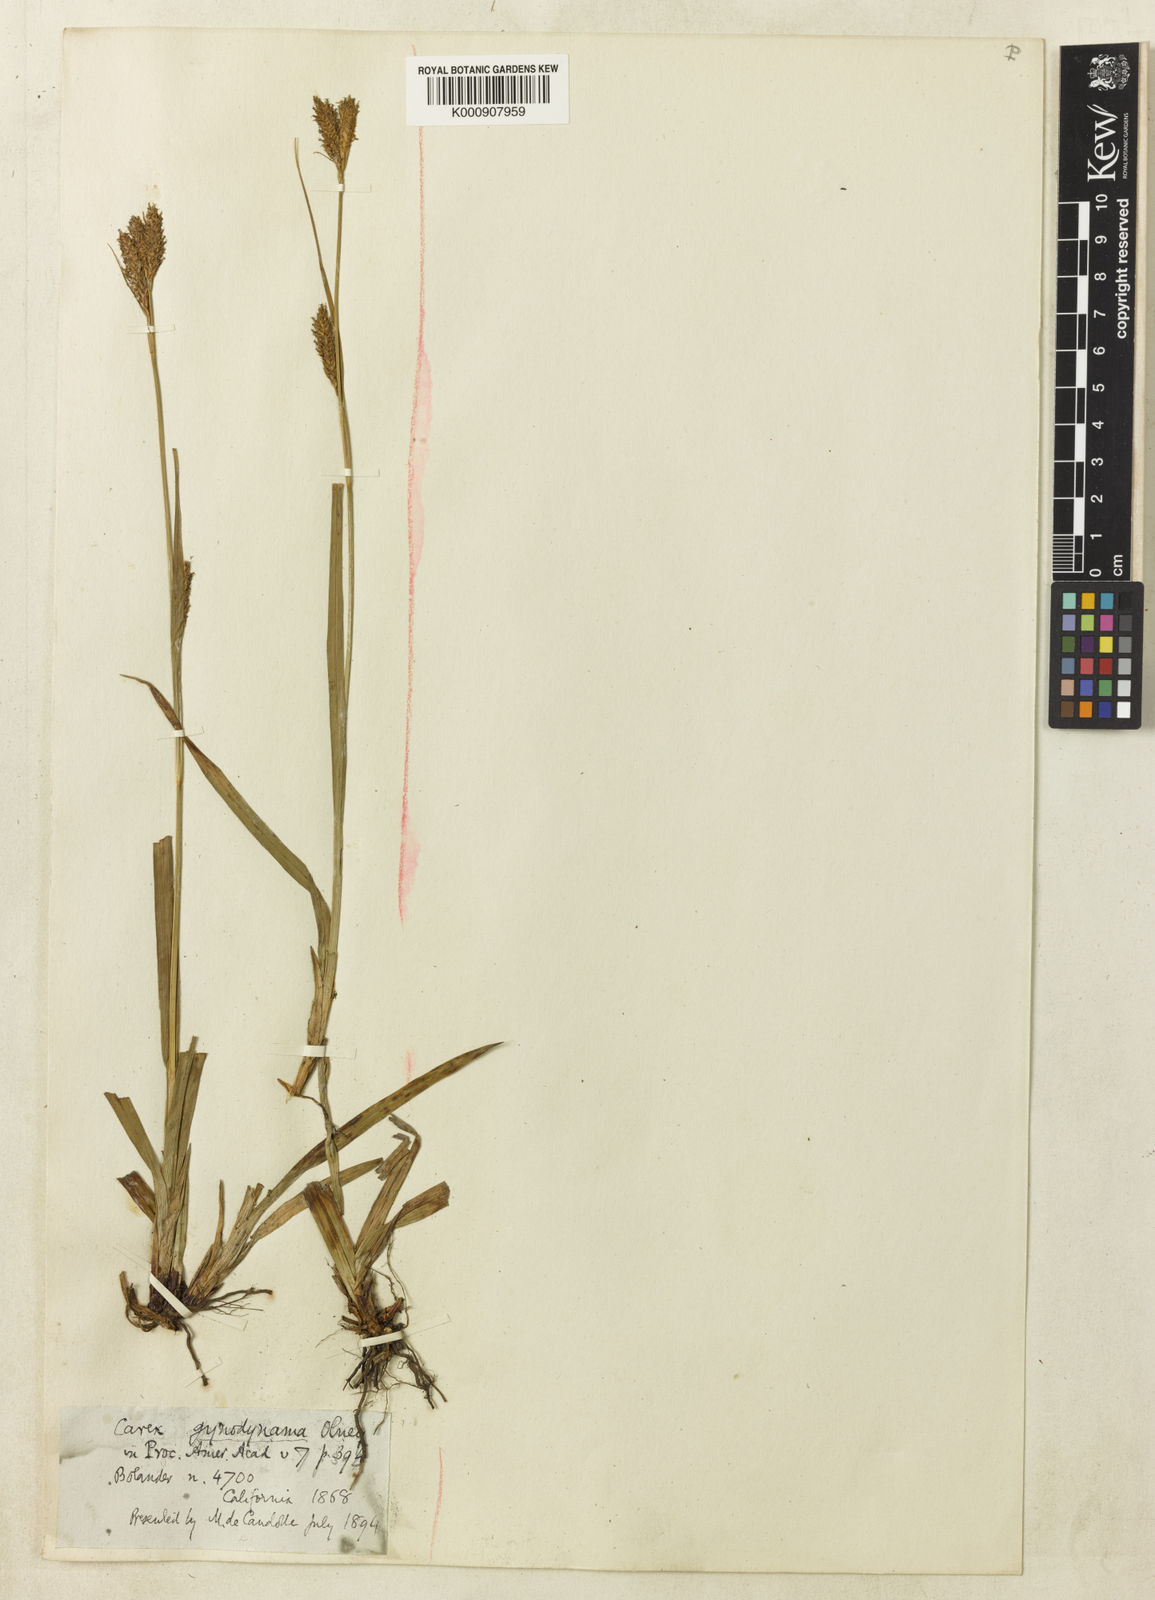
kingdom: Plantae
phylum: Tracheophyta
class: Liliopsida
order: Poales
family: Cyperaceae
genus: Carex
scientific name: Carex gynodynama
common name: Olney's hairy sedge
